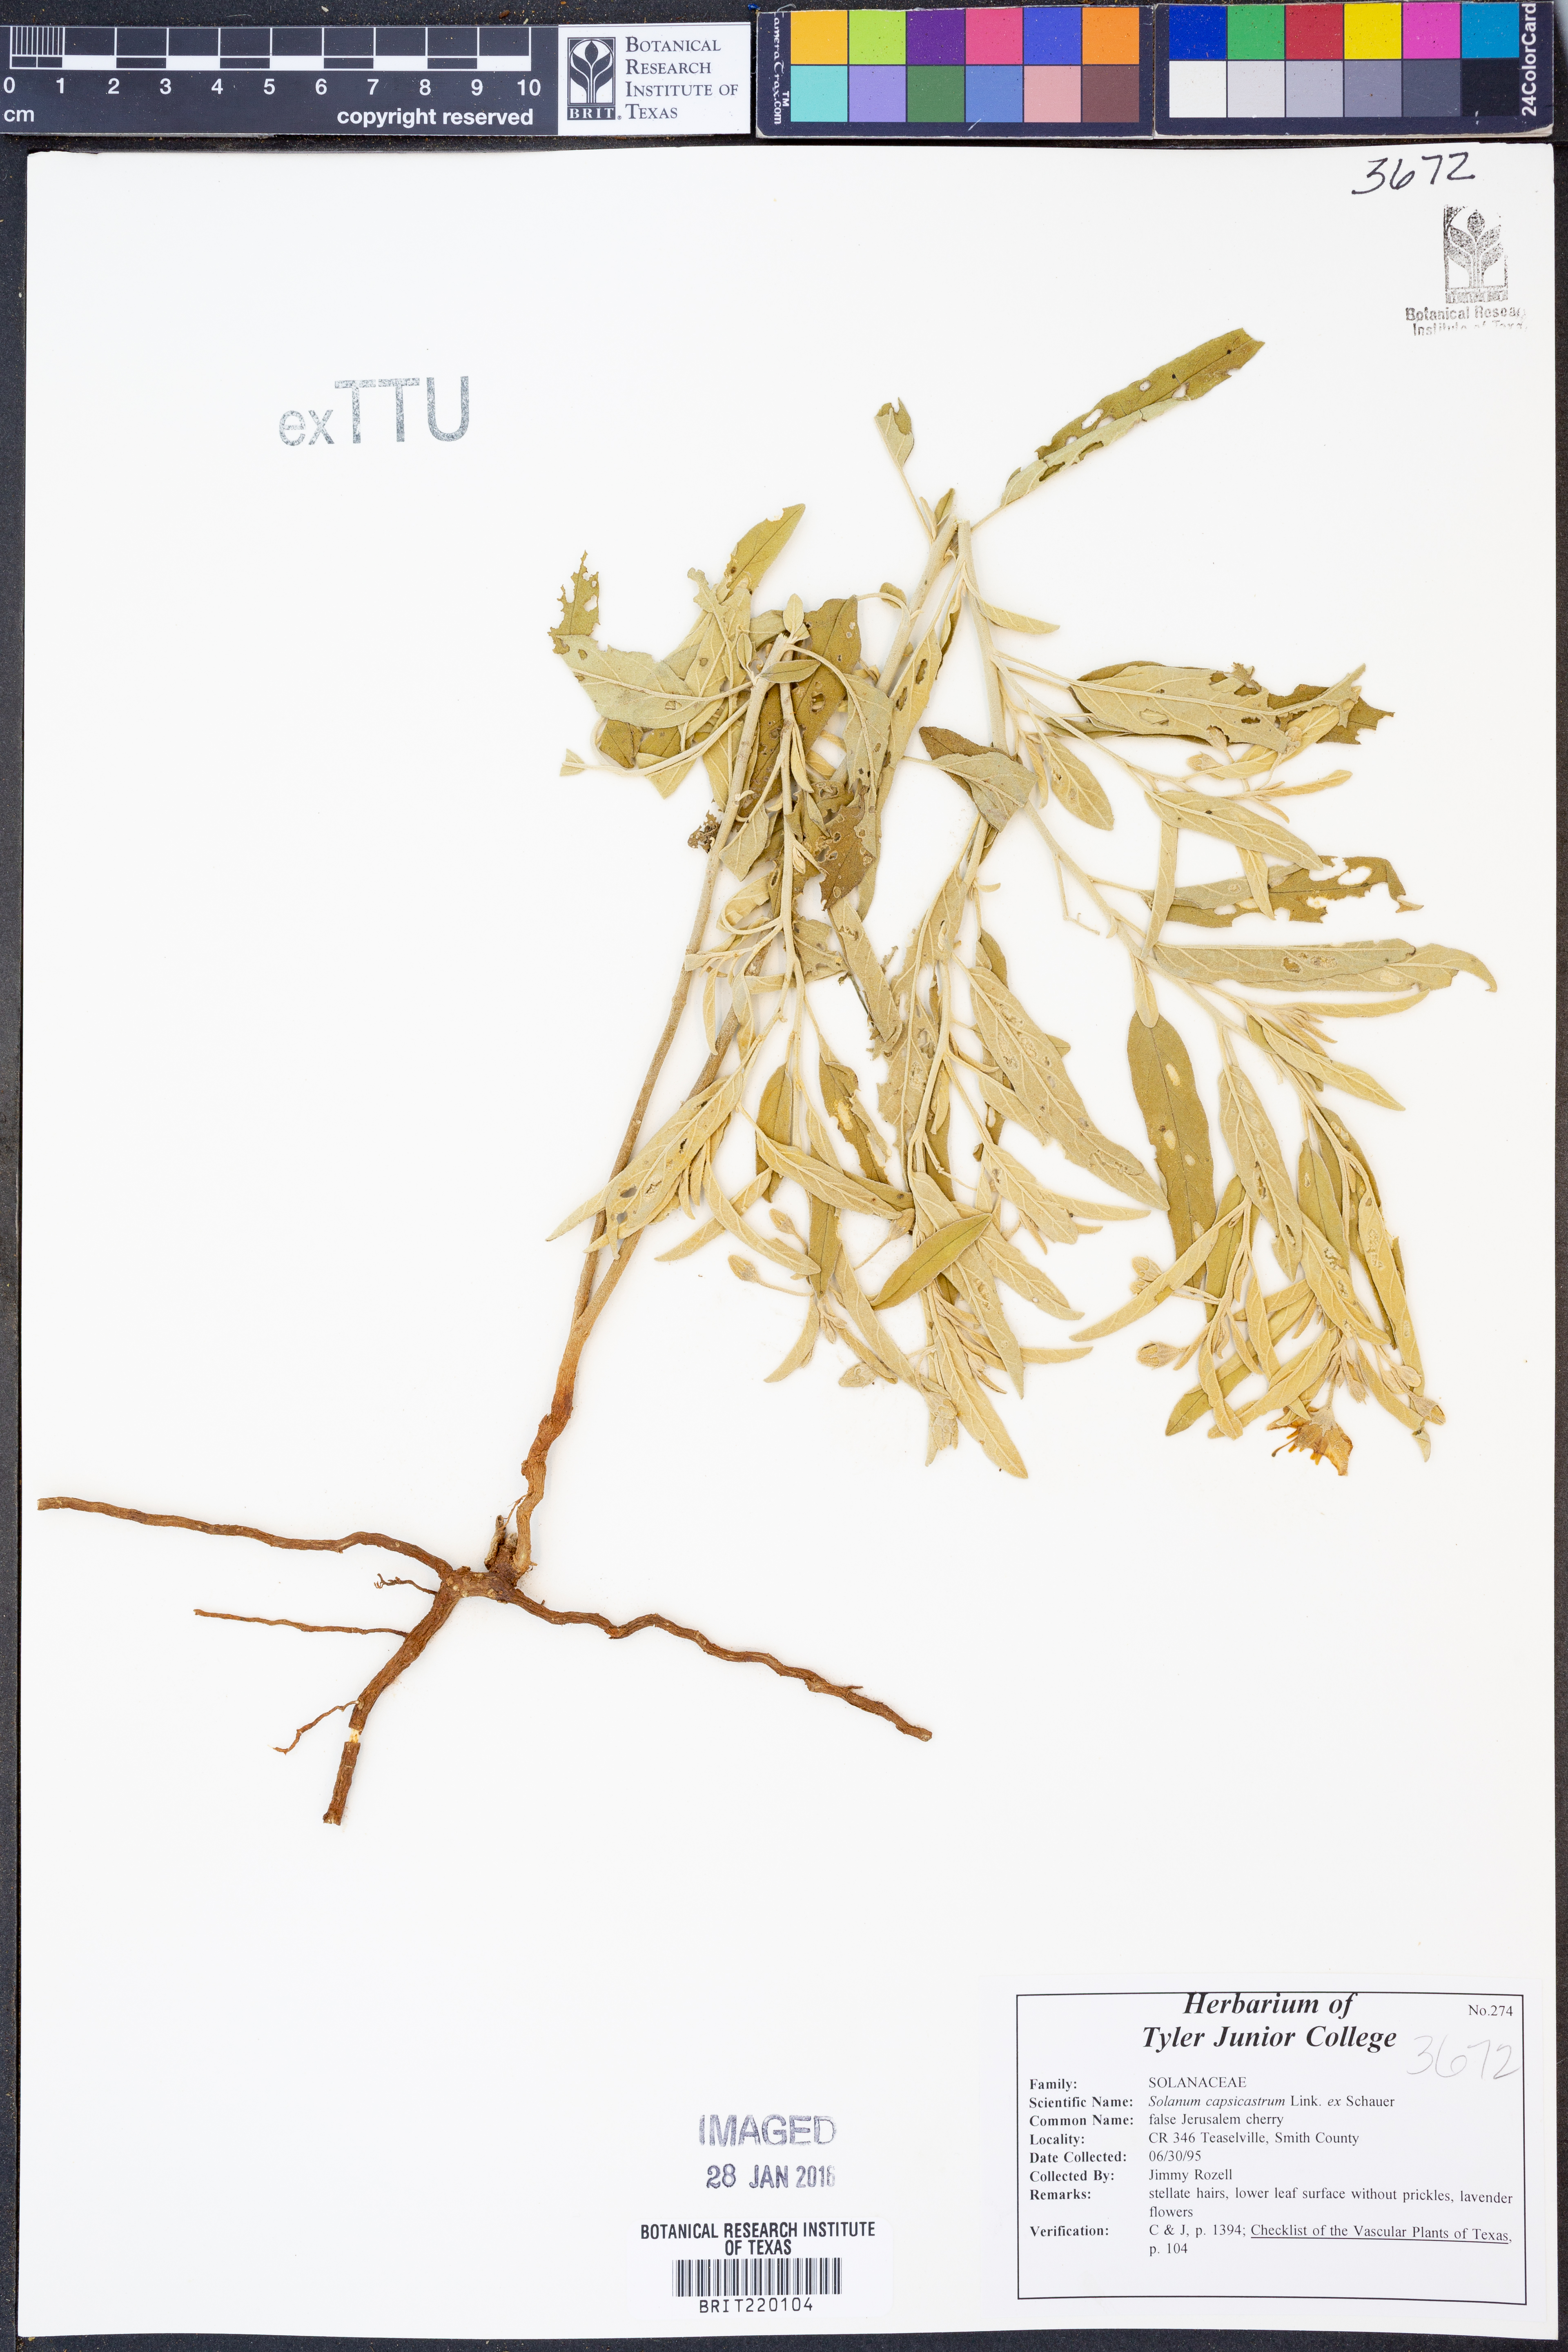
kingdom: Plantae
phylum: Tracheophyta
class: Magnoliopsida
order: Solanales
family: Solanaceae
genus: Solanum
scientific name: Solanum pseudocapsicum
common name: Jerusalem cherry
